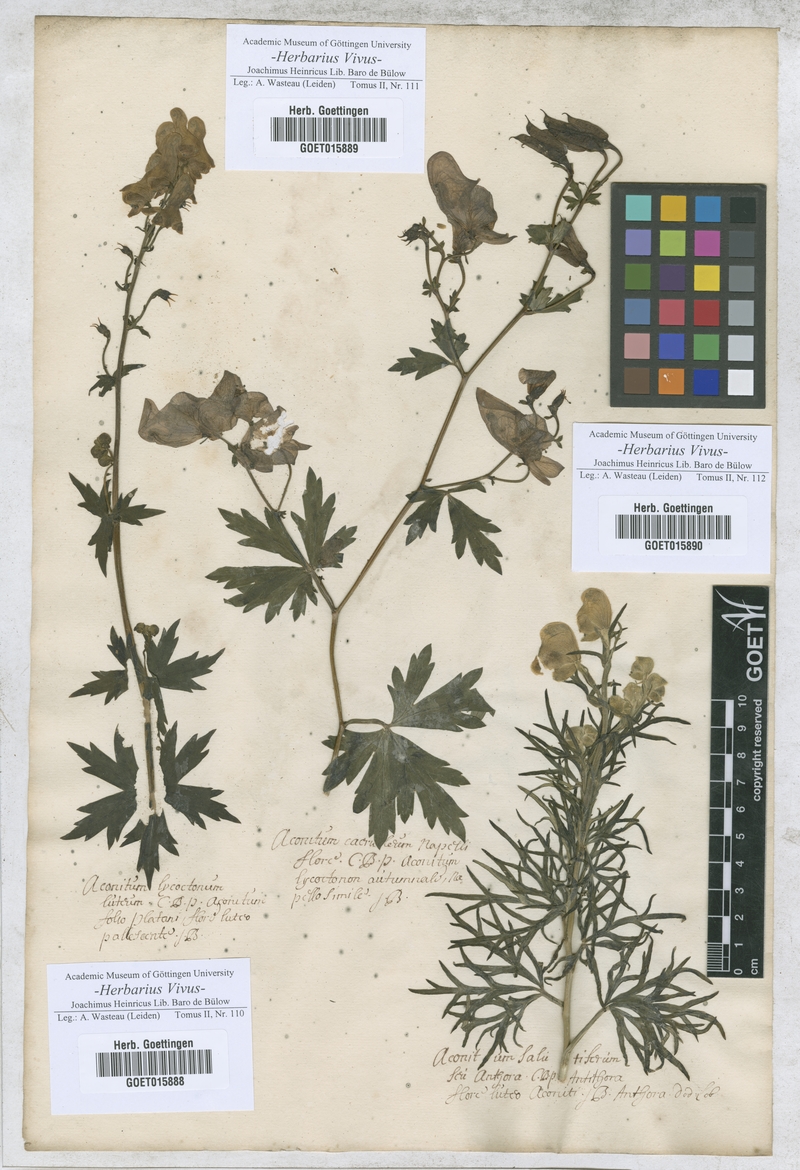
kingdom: Plantae
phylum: Tracheophyta
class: Magnoliopsida
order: Ranunculales
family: Ranunculaceae
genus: Aconitum
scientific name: Aconitum lycoctonum
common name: Wolf's-bane
